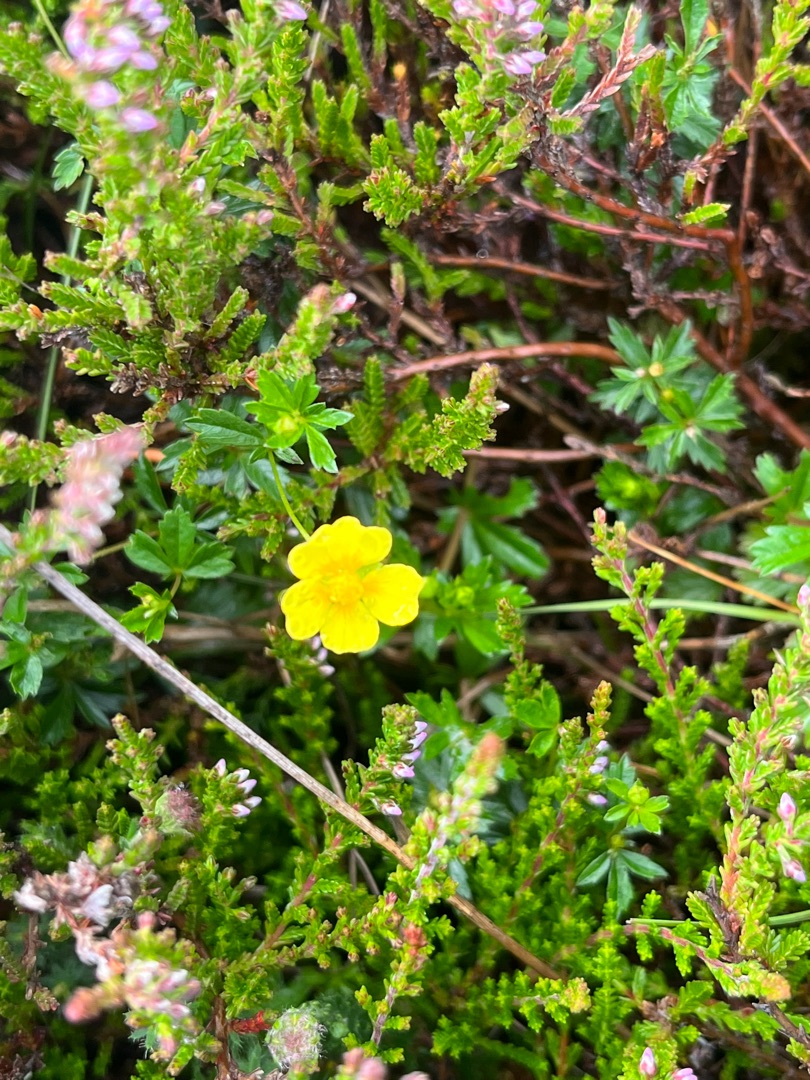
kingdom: Plantae
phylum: Tracheophyta
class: Magnoliopsida
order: Rosales
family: Rosaceae
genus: Potentilla
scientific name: Potentilla erecta
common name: Tormentil
